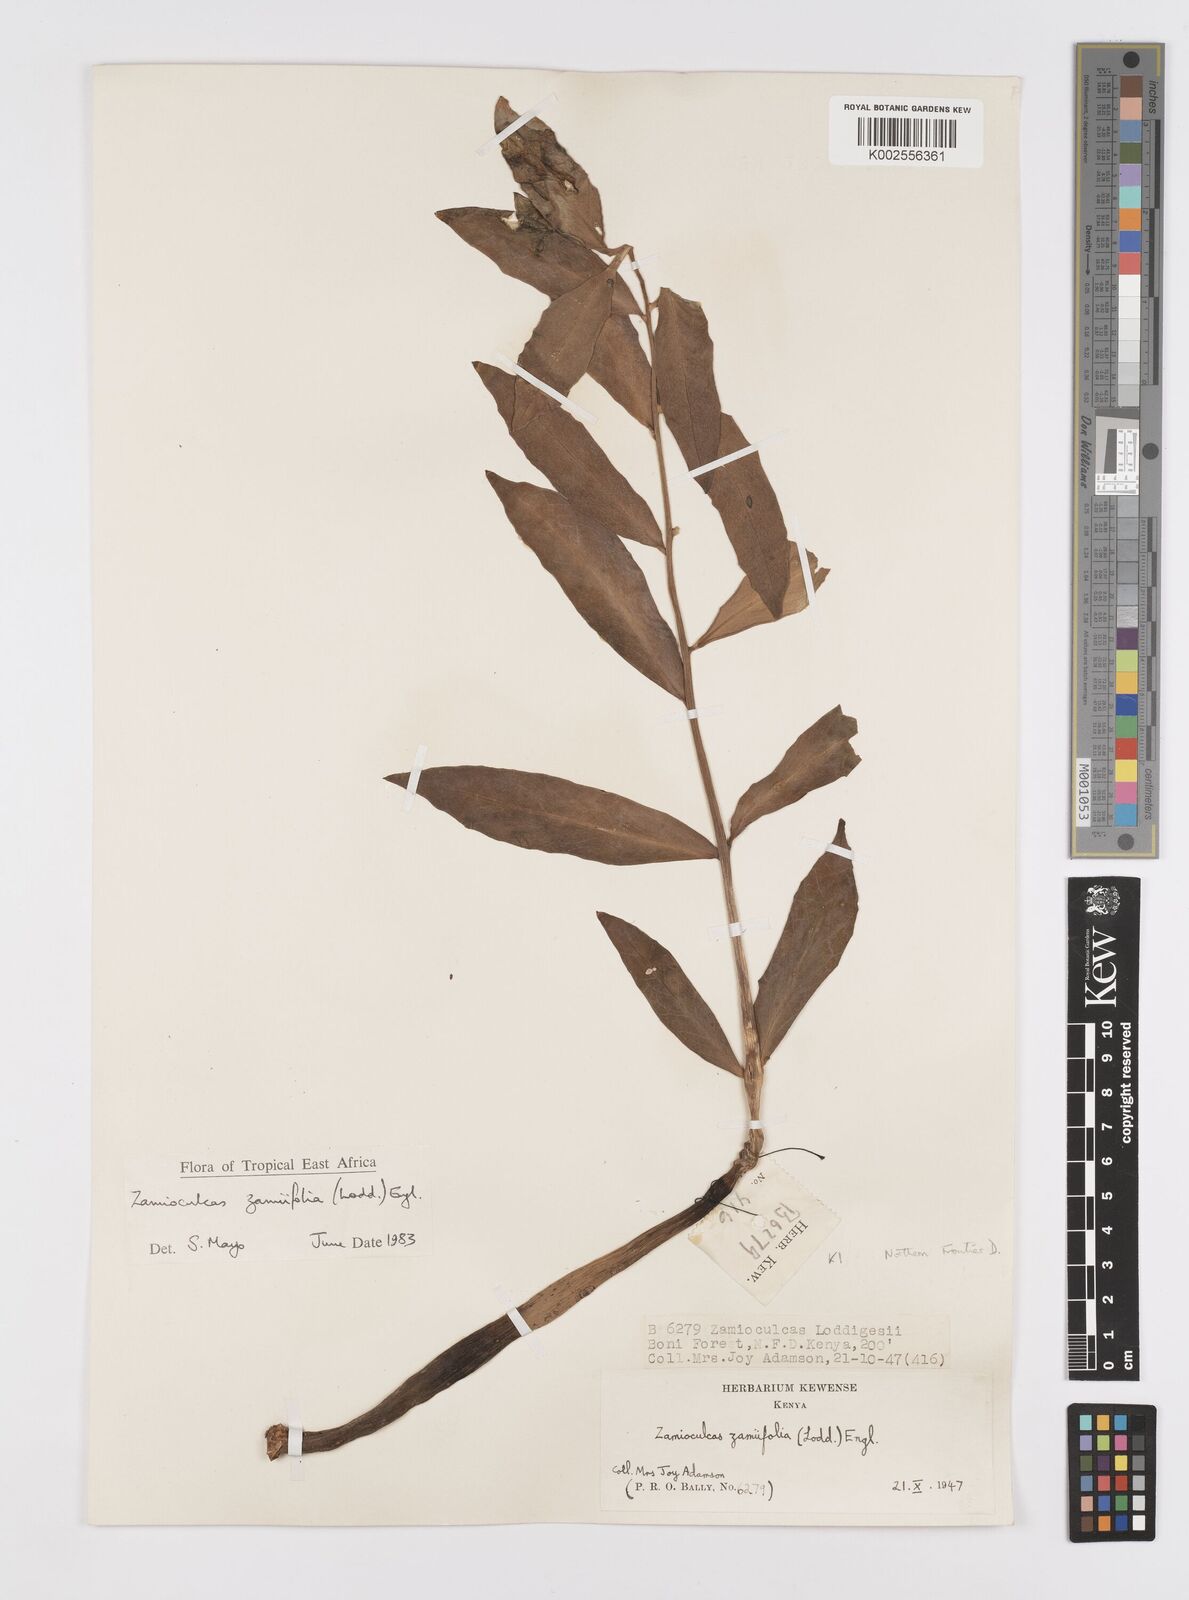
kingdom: Plantae
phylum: Tracheophyta
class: Liliopsida
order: Alismatales
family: Araceae
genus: Zamioculcas
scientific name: Zamioculcas zamiifolia
